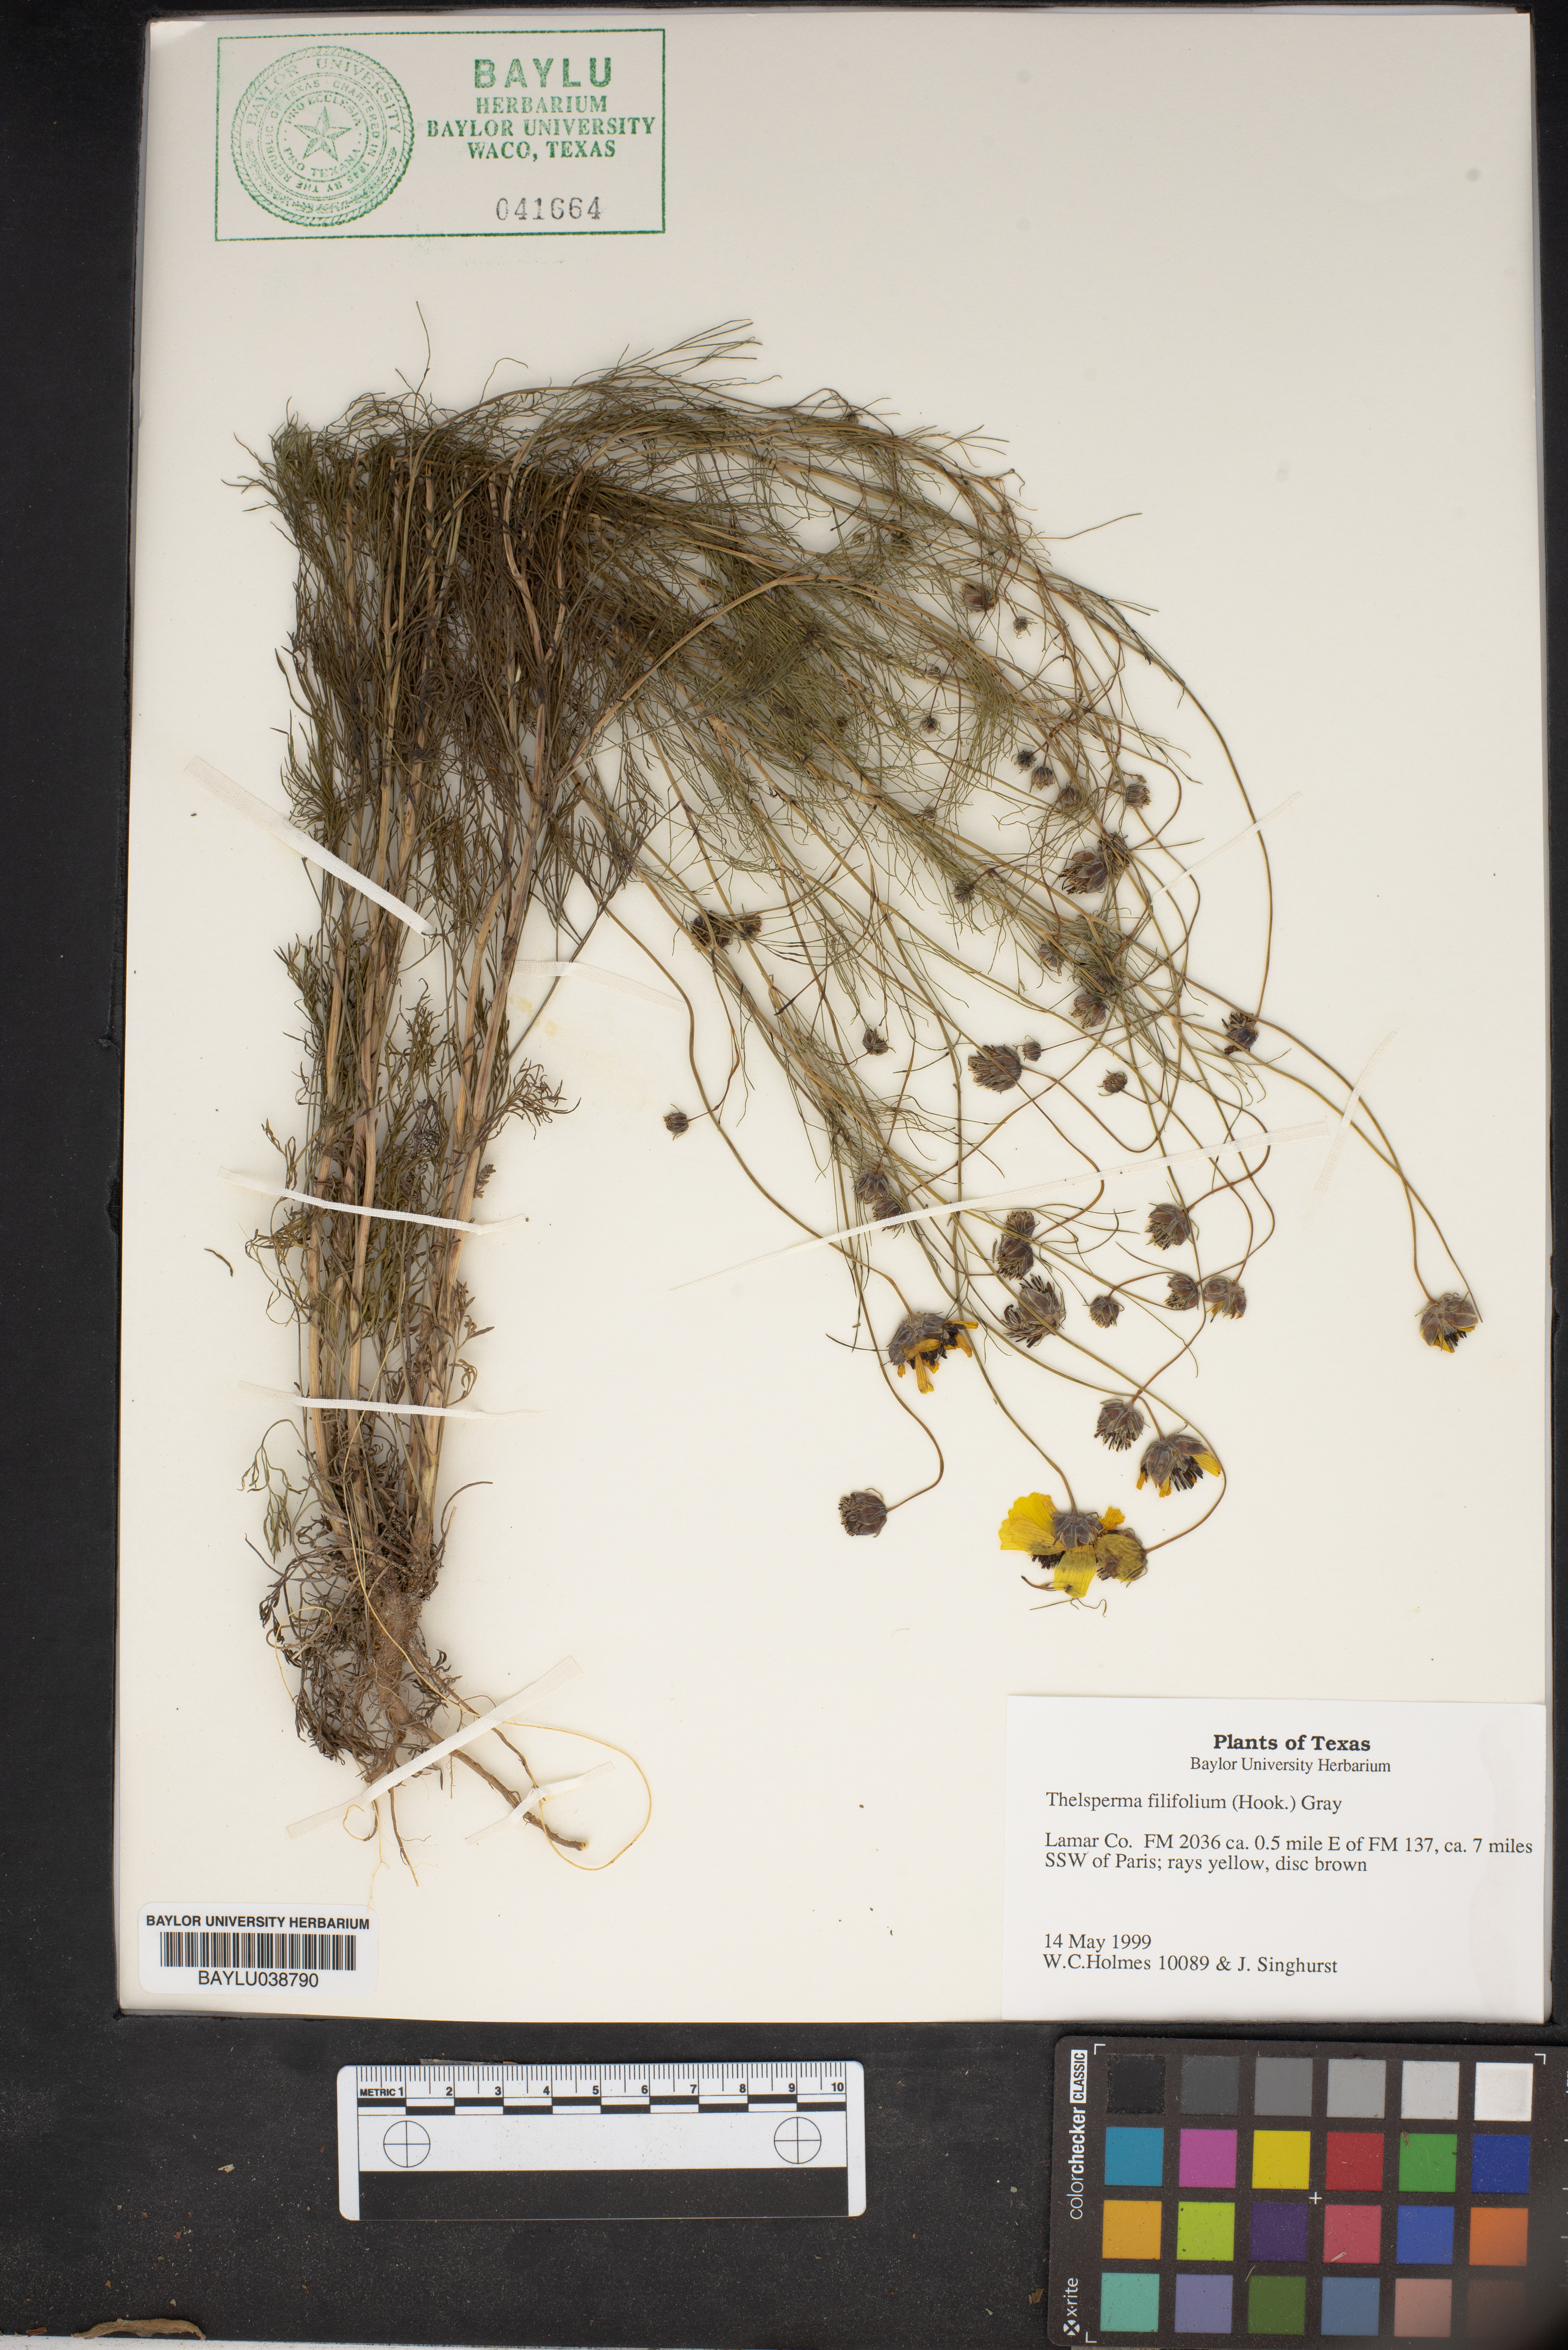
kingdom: Plantae
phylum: Tracheophyta
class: Magnoliopsida
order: Asterales
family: Asteraceae
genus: Thelesperma
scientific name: Thelesperma filifolium
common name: Stiff greenthread
